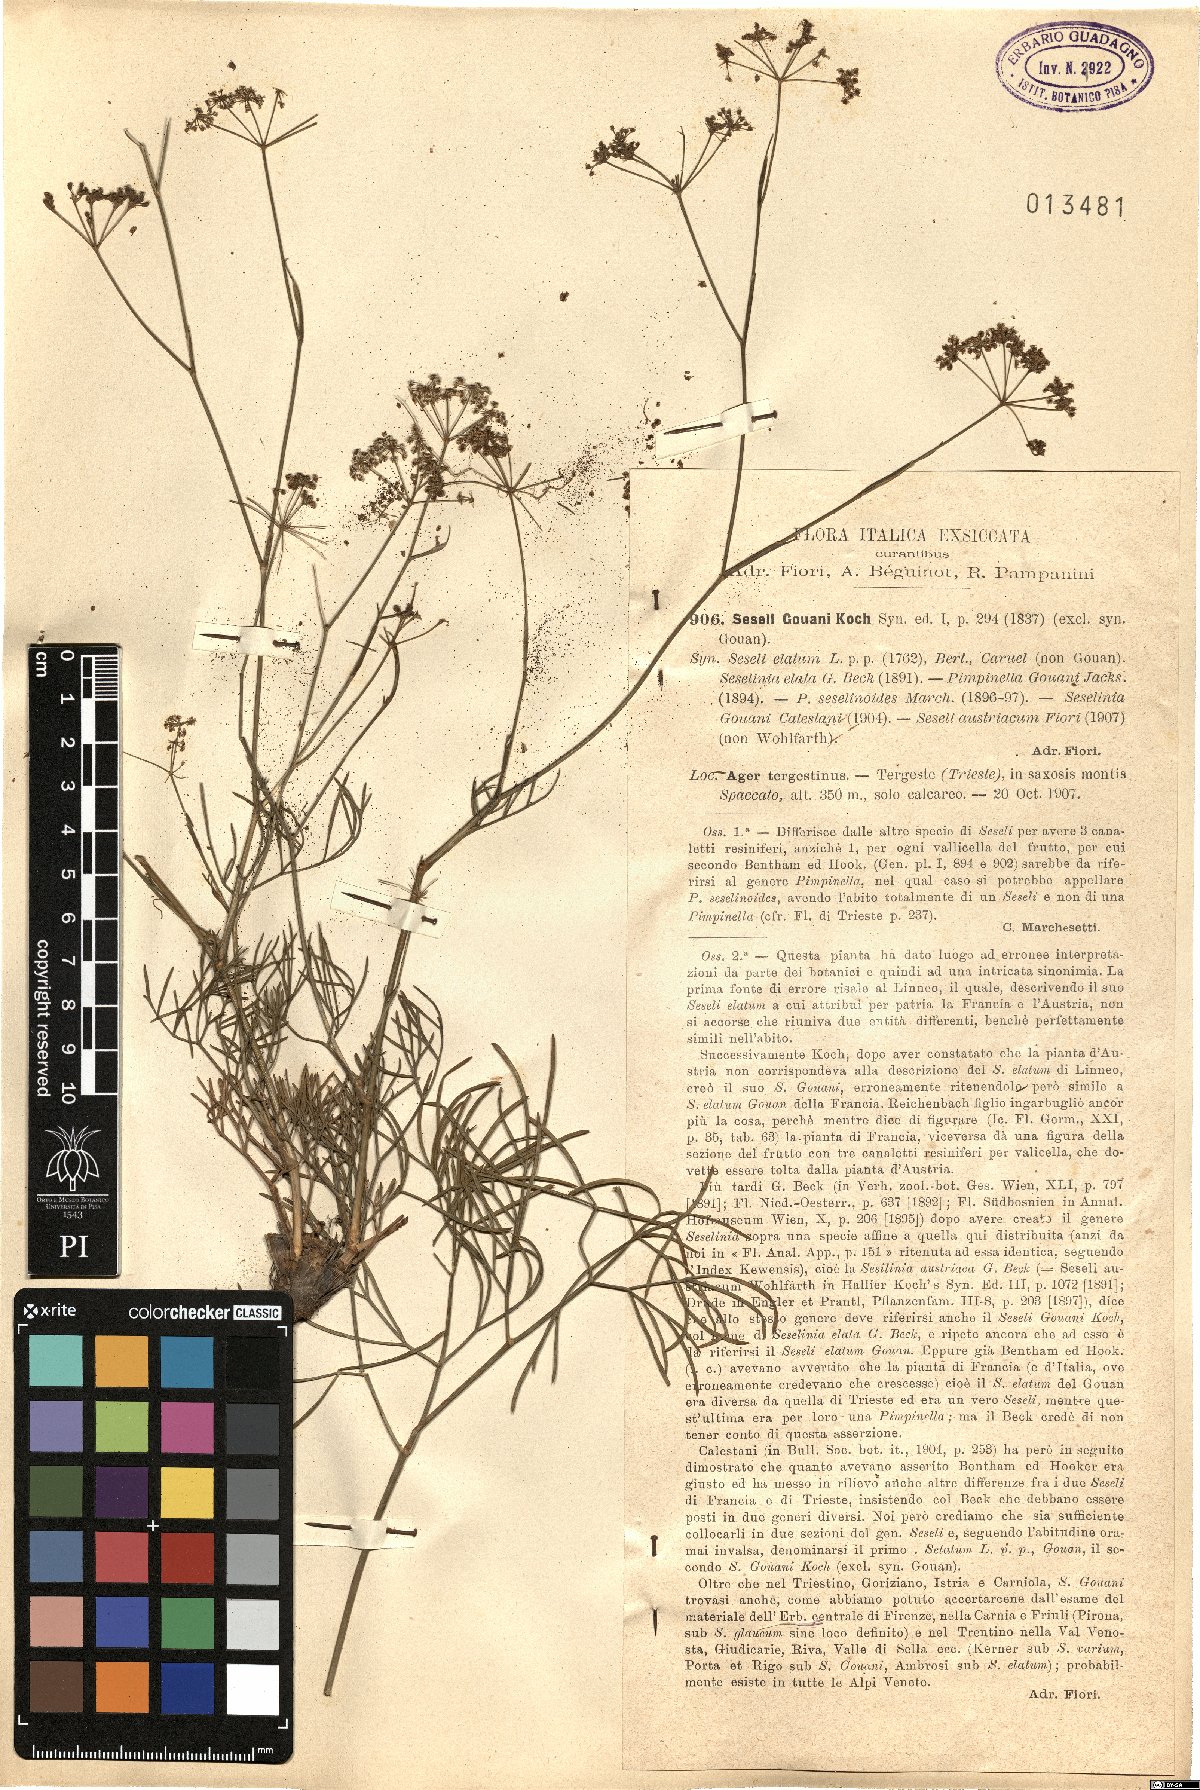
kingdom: Plantae
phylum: Tracheophyta
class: Magnoliopsida
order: Apiales
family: Apiaceae
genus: Seseli
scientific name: Seseli gouanii
